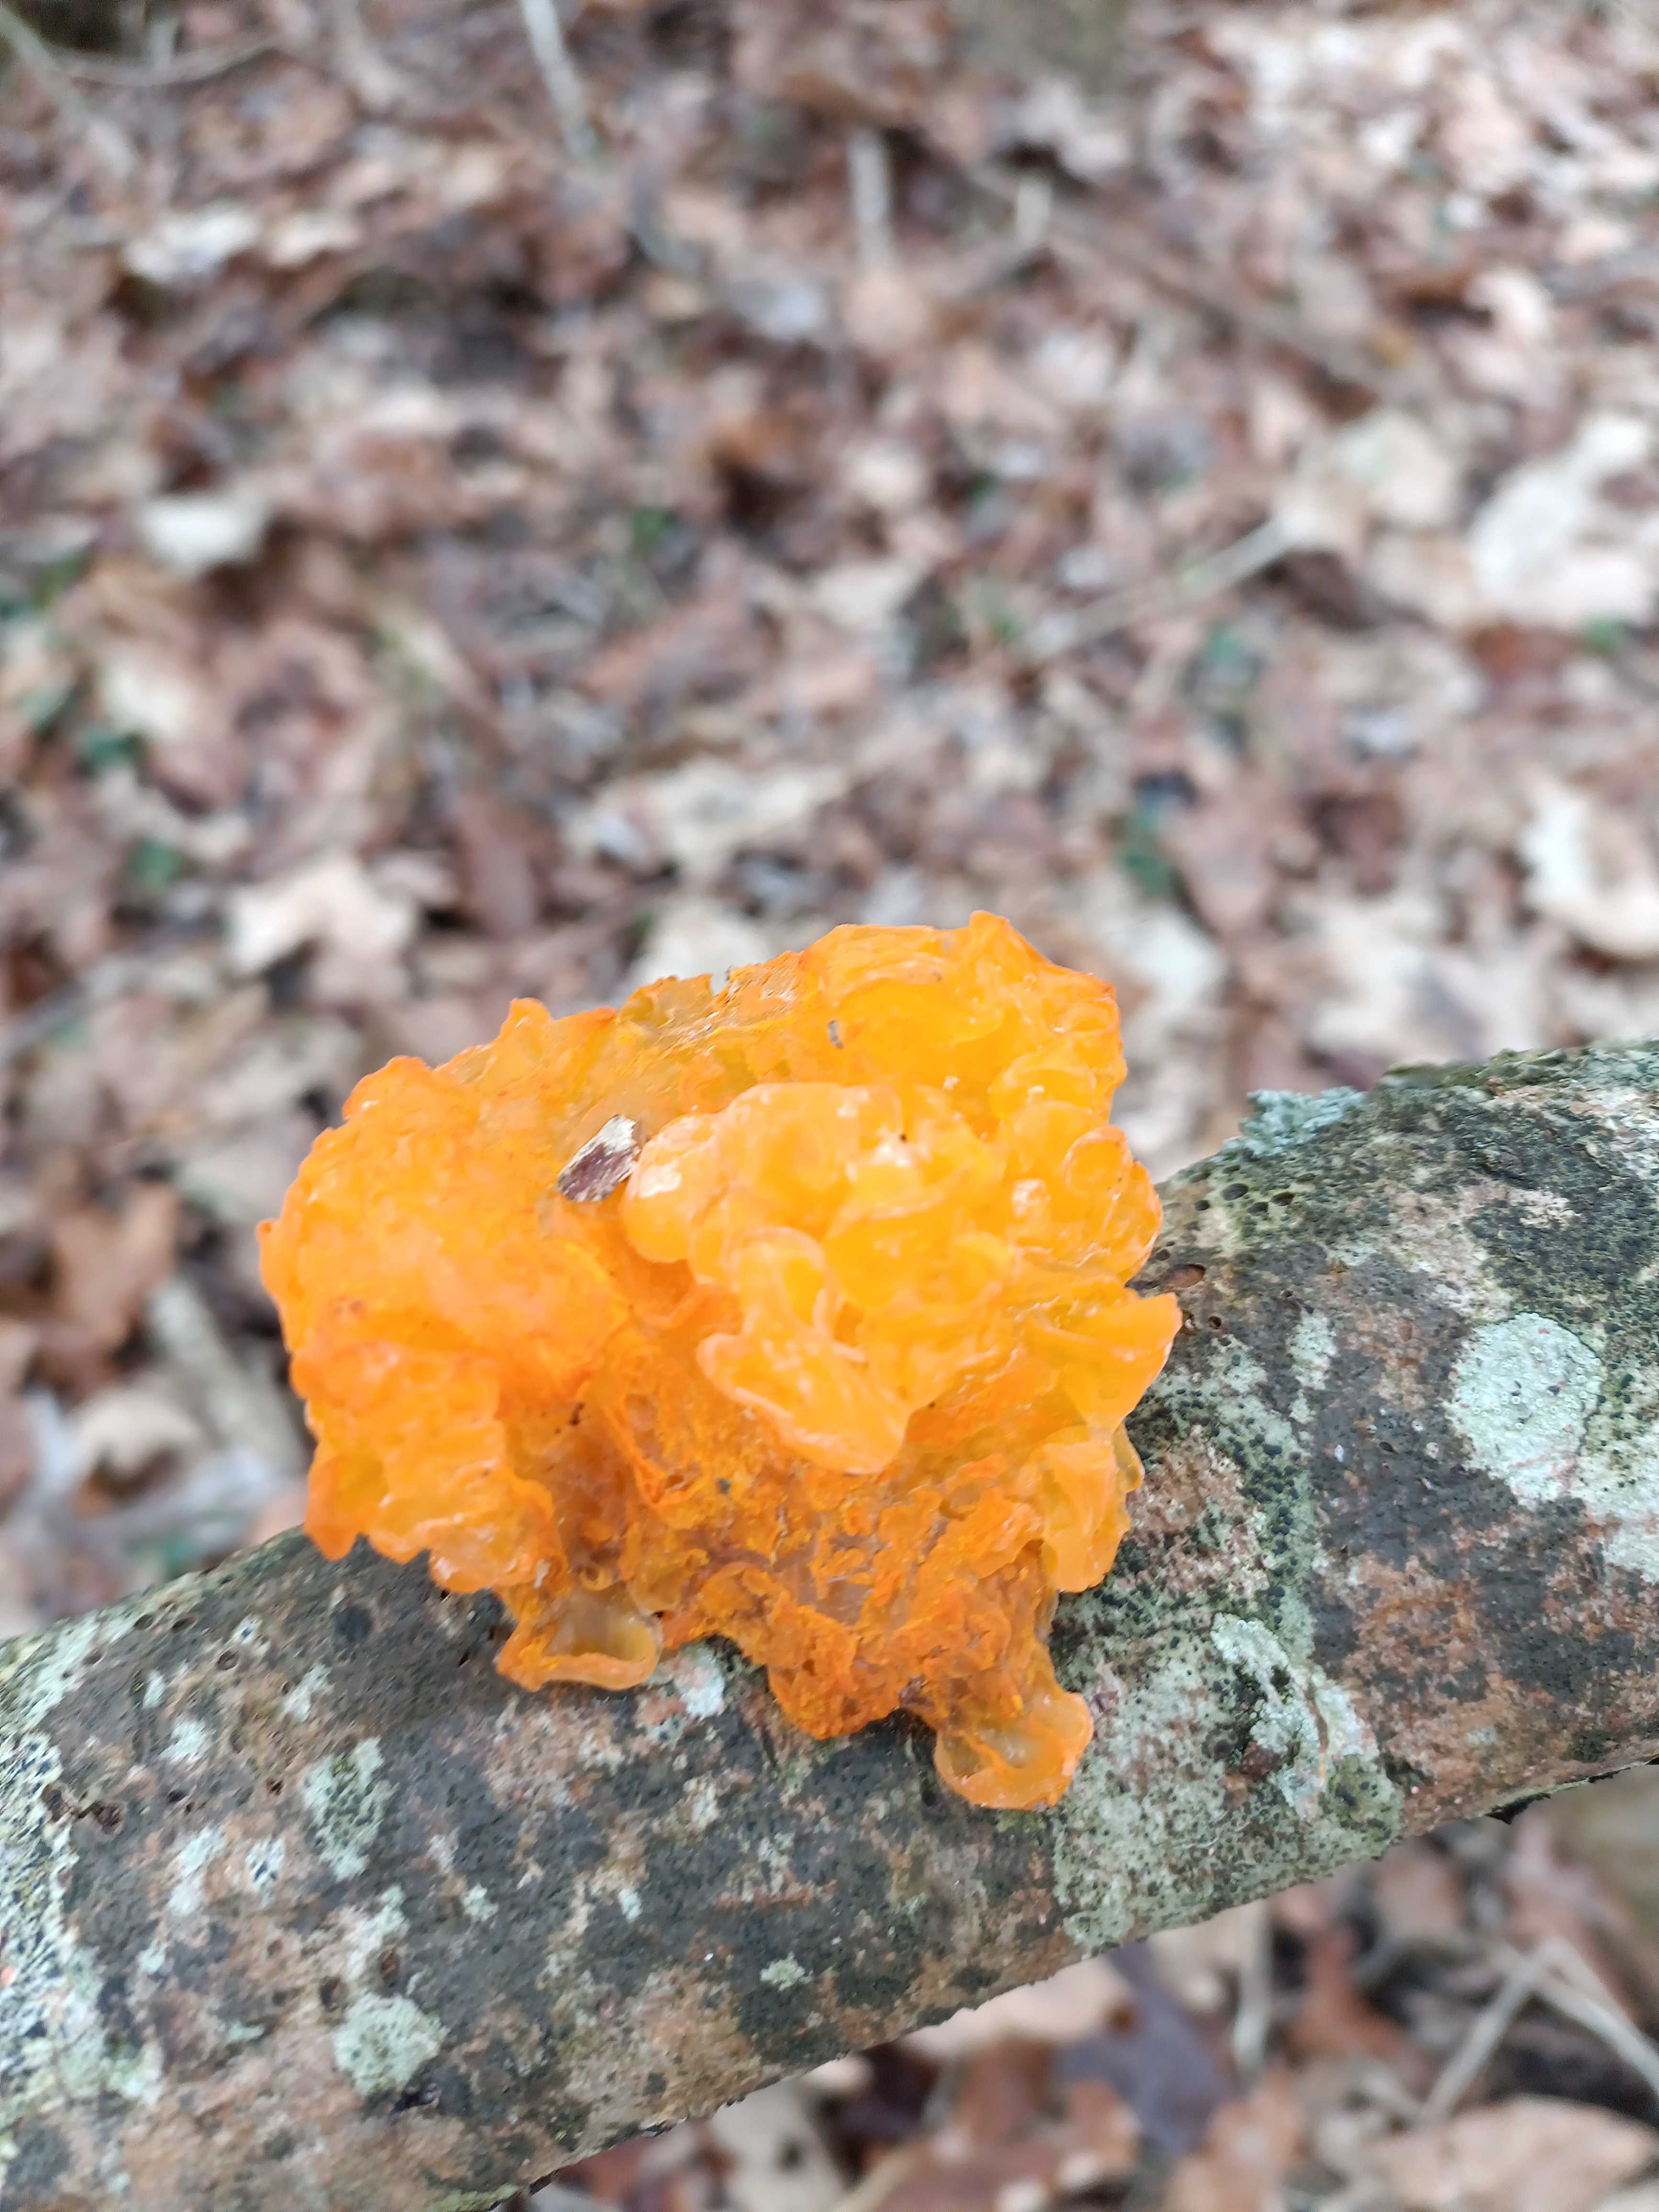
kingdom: Fungi
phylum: Basidiomycota
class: Tremellomycetes
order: Tremellales
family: Tremellaceae
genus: Tremella
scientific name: Tremella mesenterica
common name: gul bævresvamp
